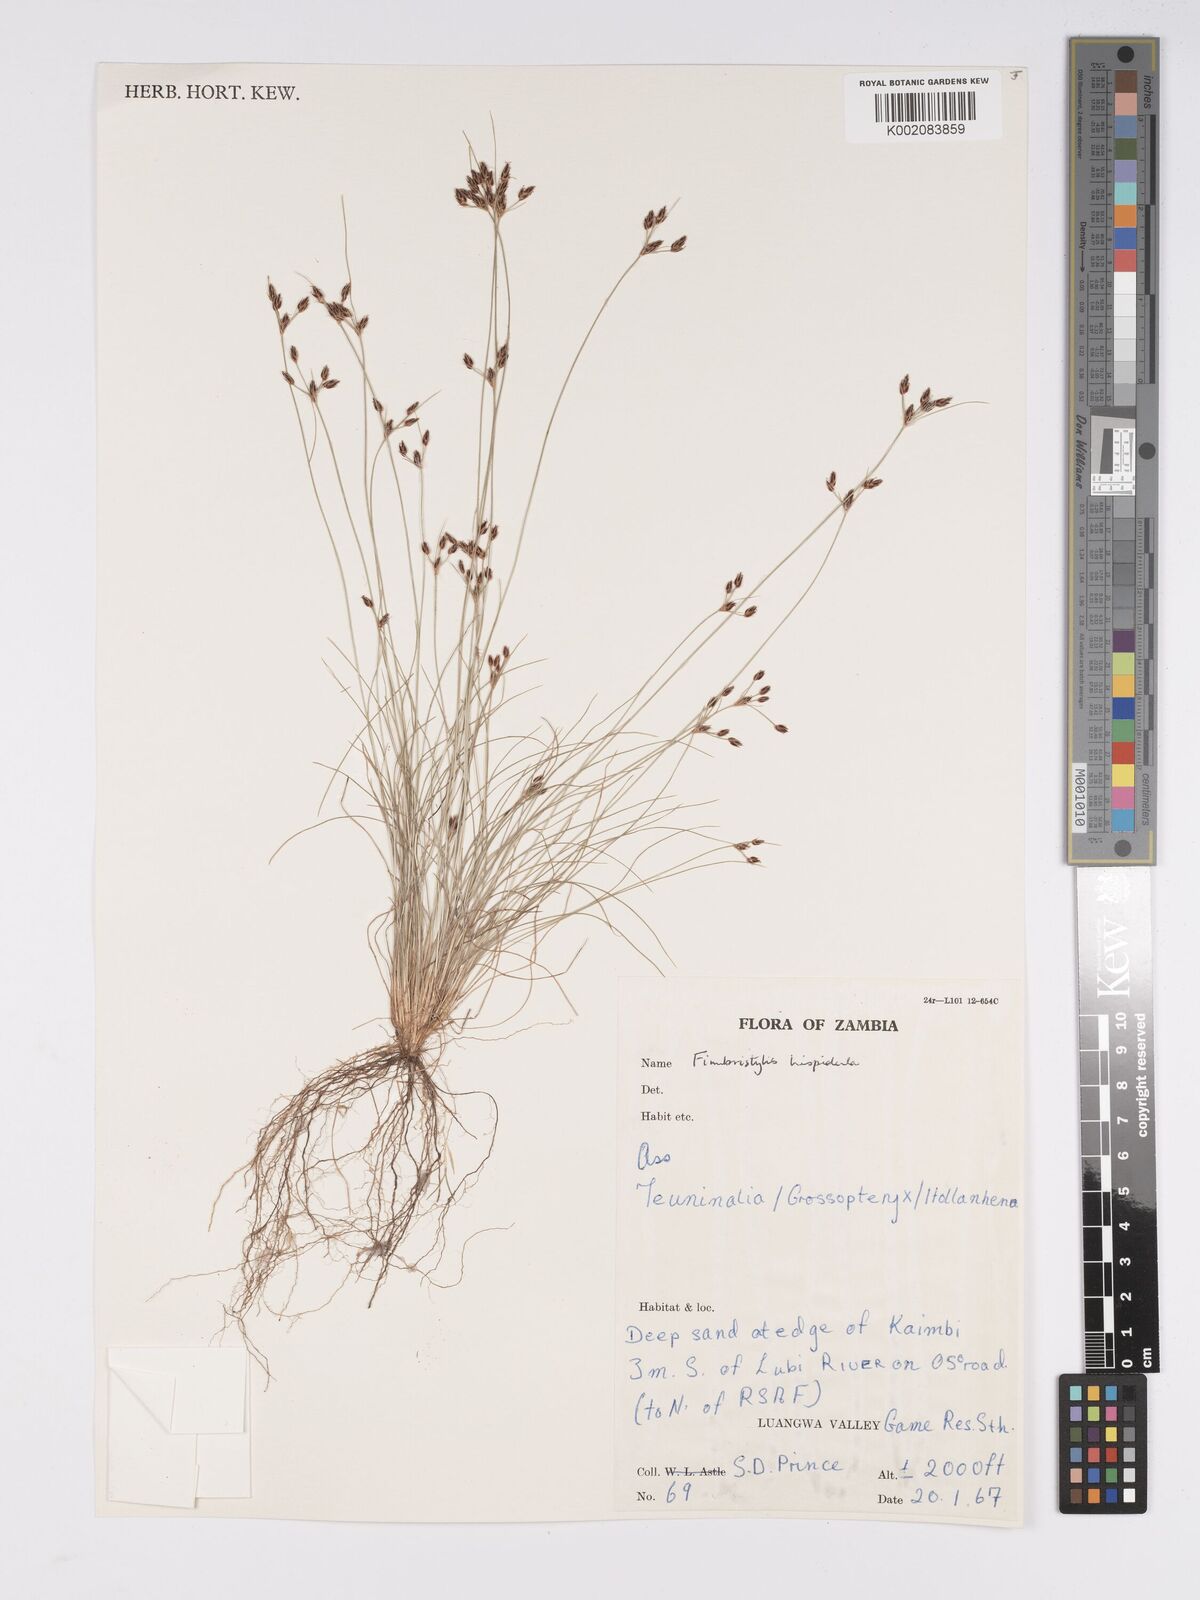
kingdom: Plantae
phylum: Tracheophyta
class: Liliopsida
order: Poales
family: Cyperaceae
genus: Bulbostylis
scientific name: Bulbostylis hispidula
